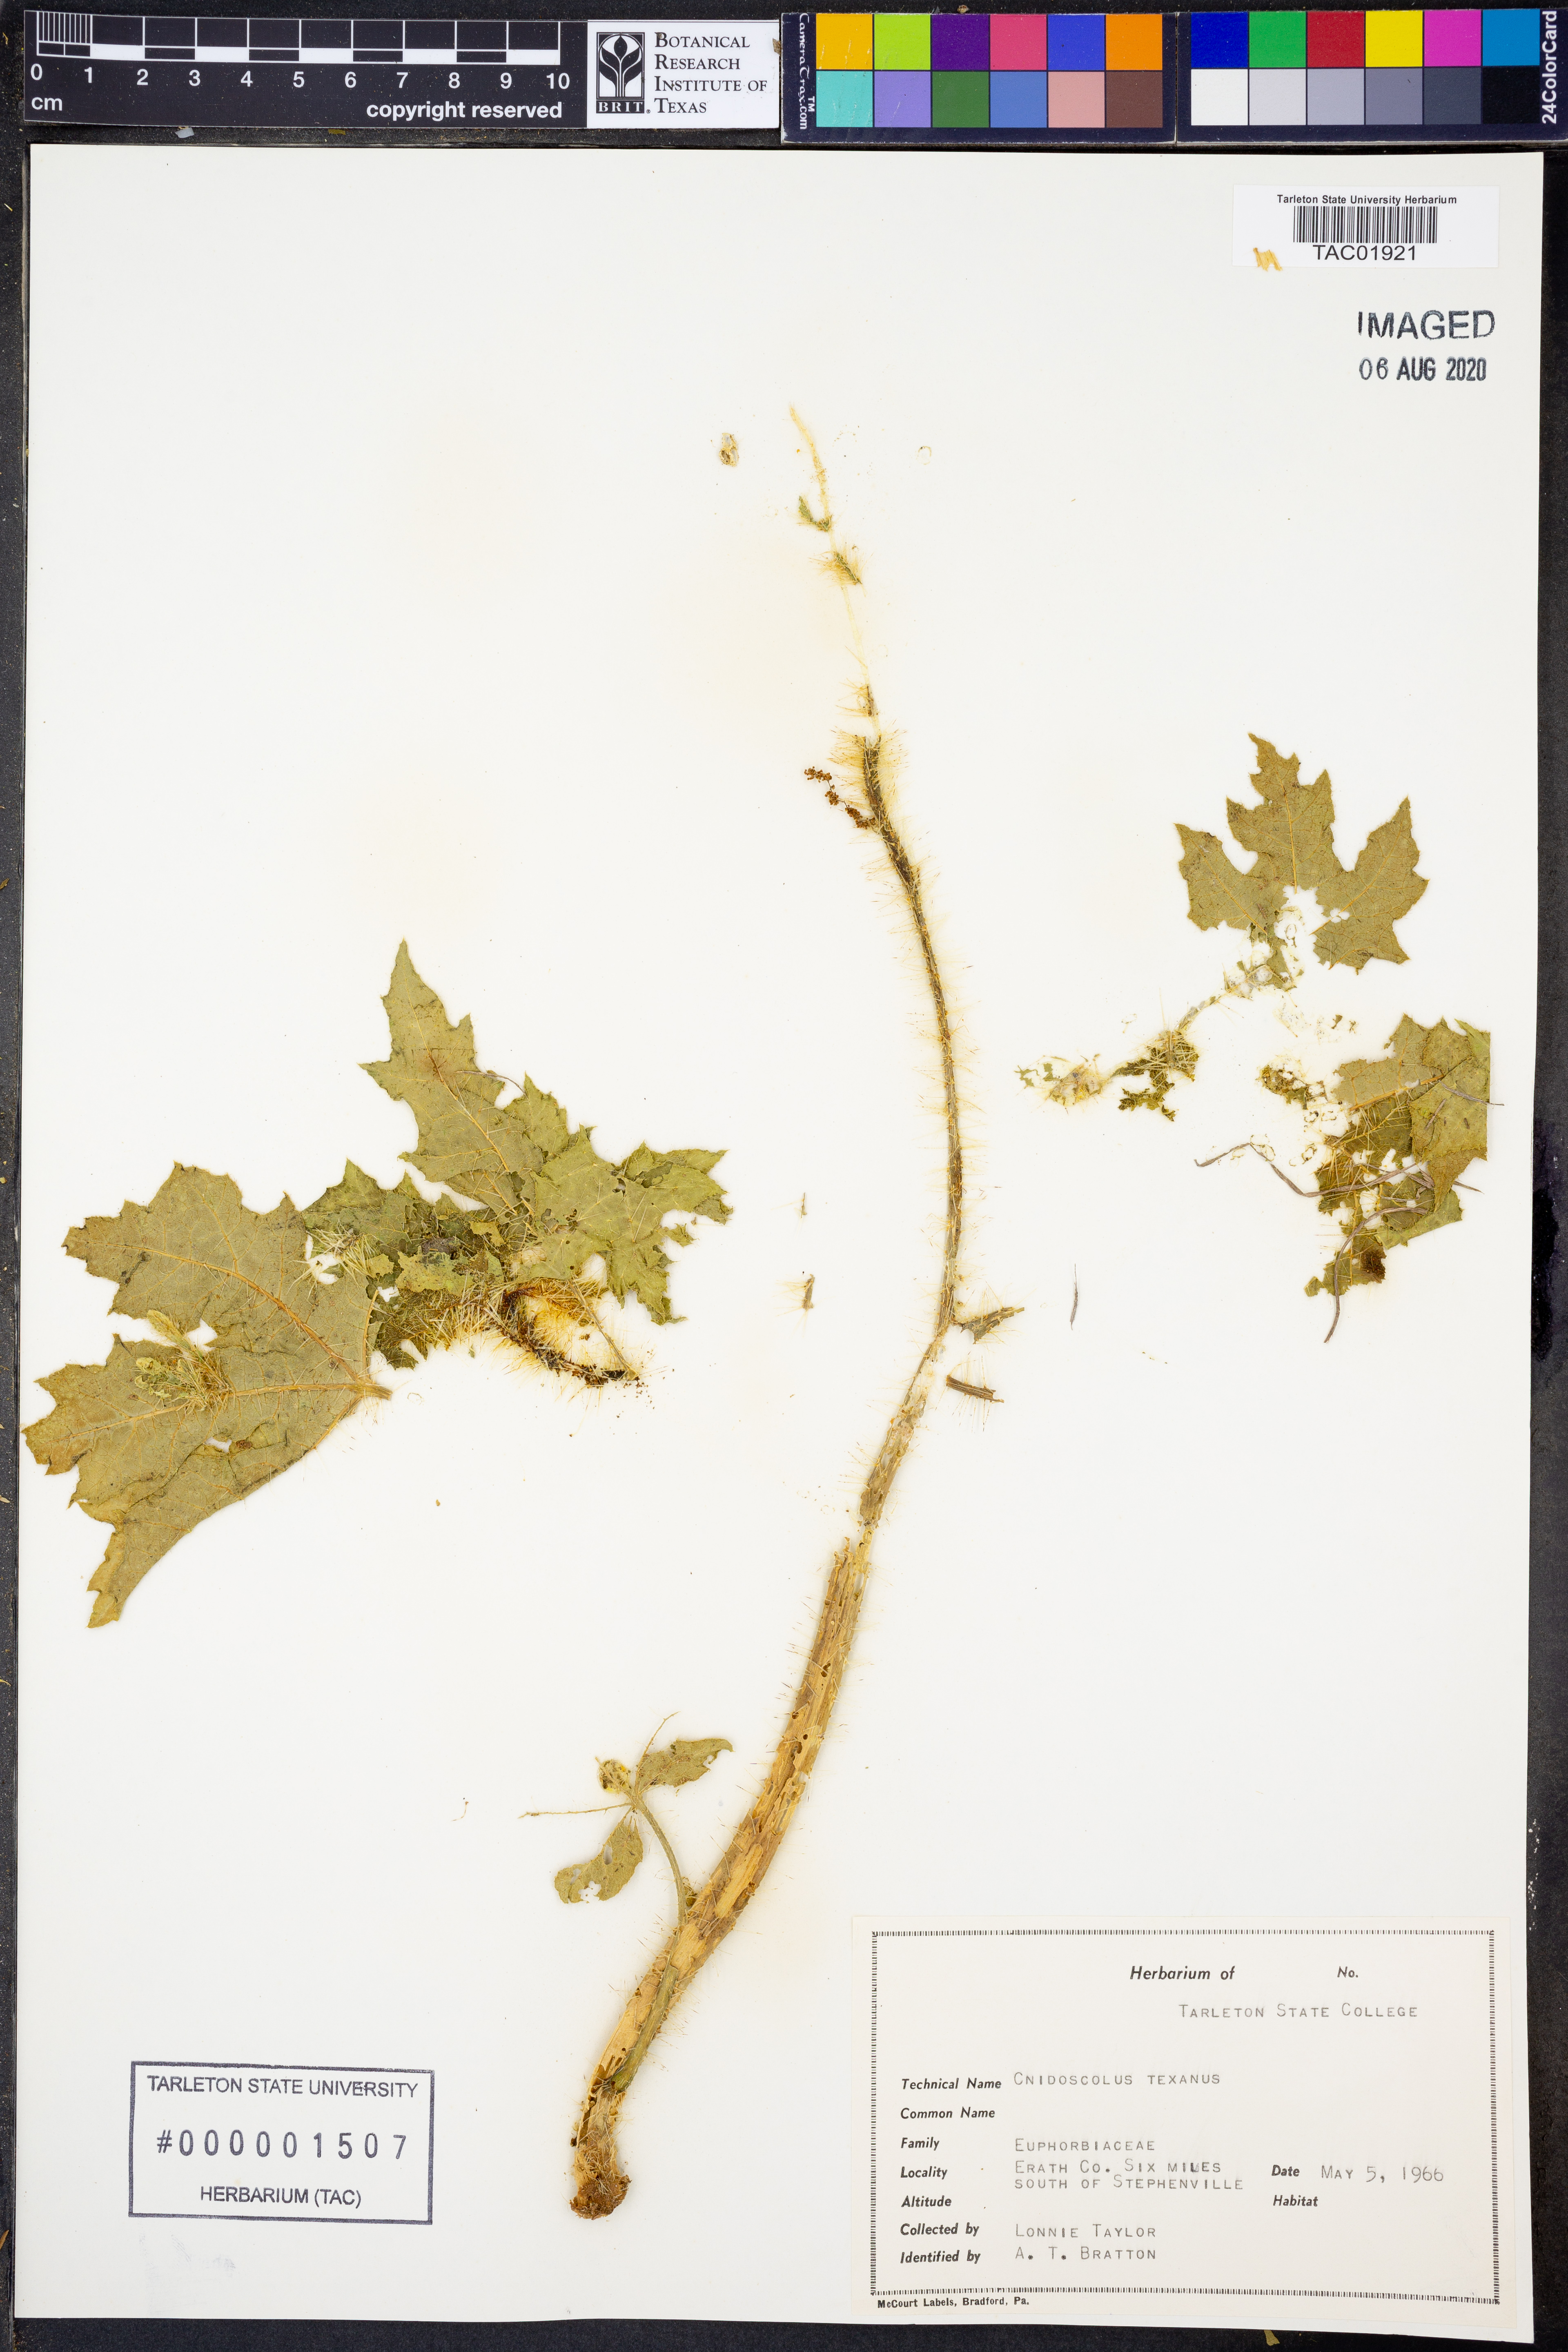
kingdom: Plantae
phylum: Tracheophyta
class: Magnoliopsida
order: Malpighiales
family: Euphorbiaceae
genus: Cnidoscolus
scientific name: Cnidoscolus texanus
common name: Texas bull-nettle
